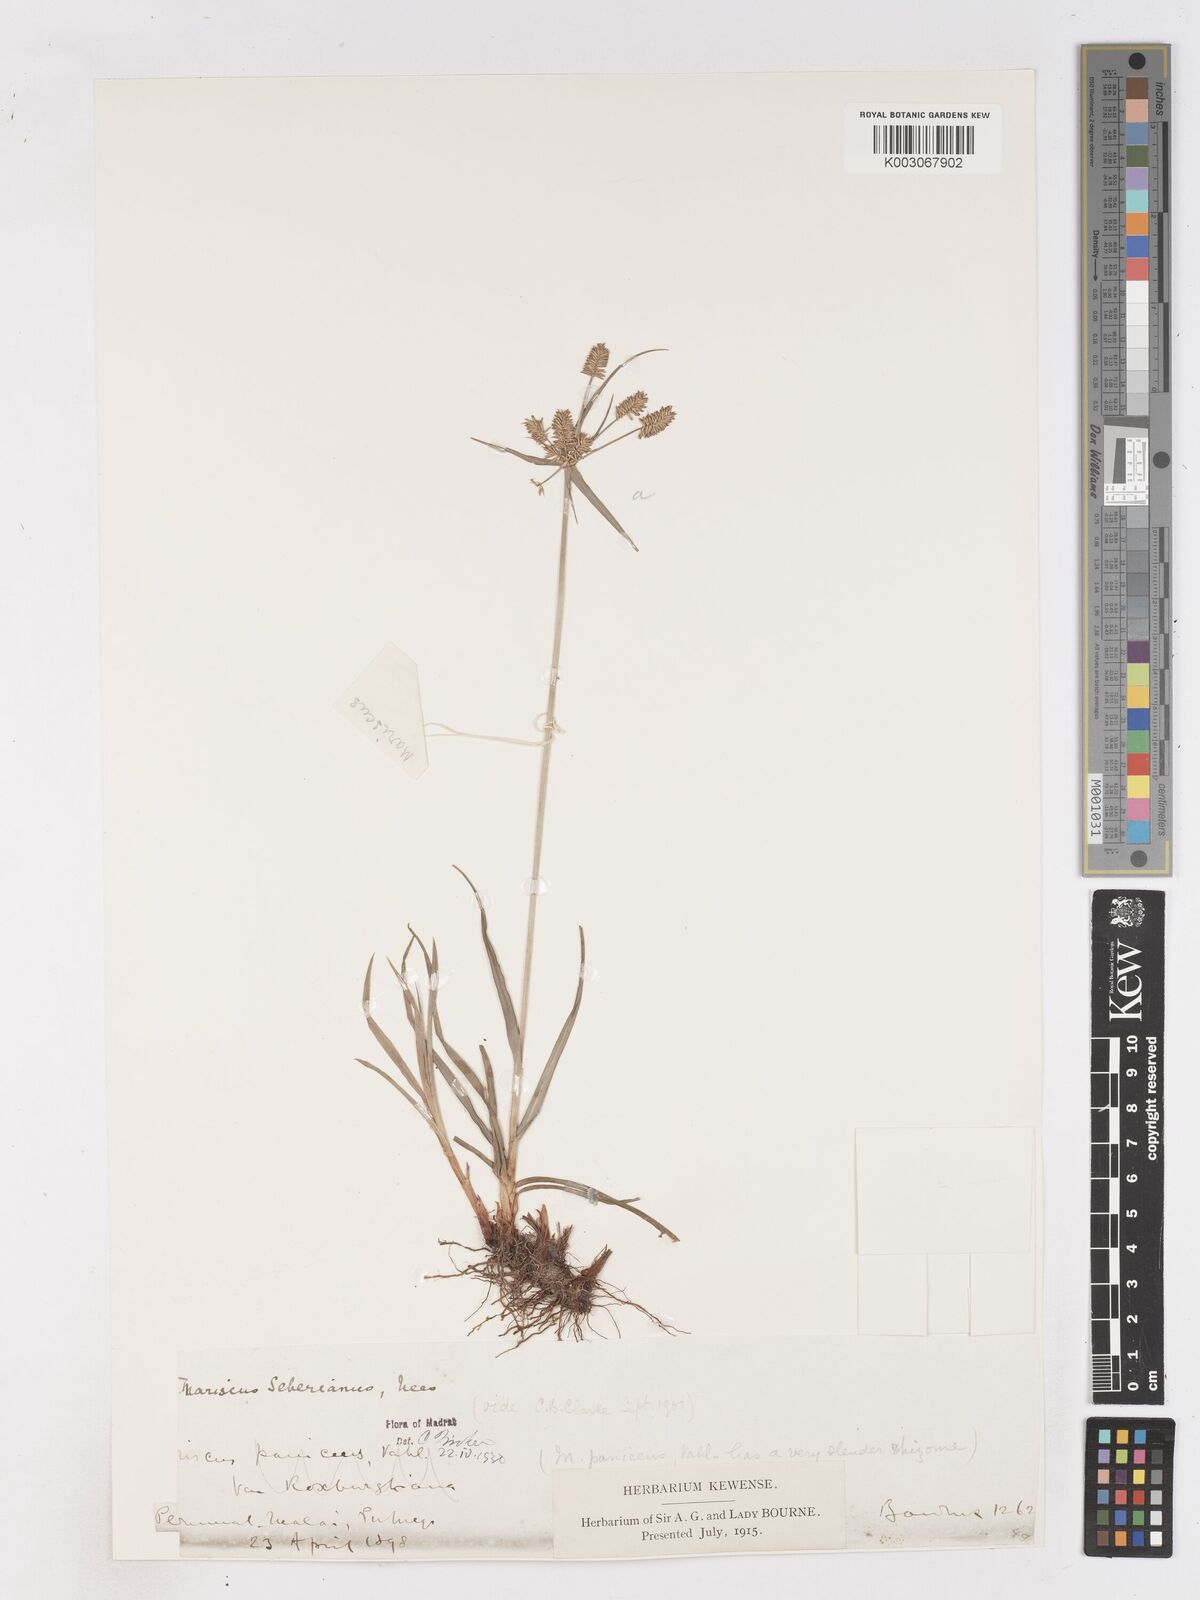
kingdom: Plantae
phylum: Tracheophyta
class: Liliopsida
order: Poales
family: Cyperaceae
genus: Cyperus
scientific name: Cyperus cyperinus
